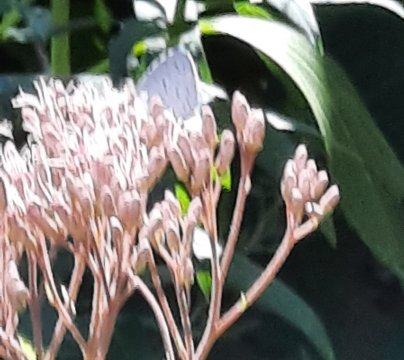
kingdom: Animalia
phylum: Arthropoda
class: Insecta
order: Lepidoptera
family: Lycaenidae
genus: Celastrina
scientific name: Celastrina
